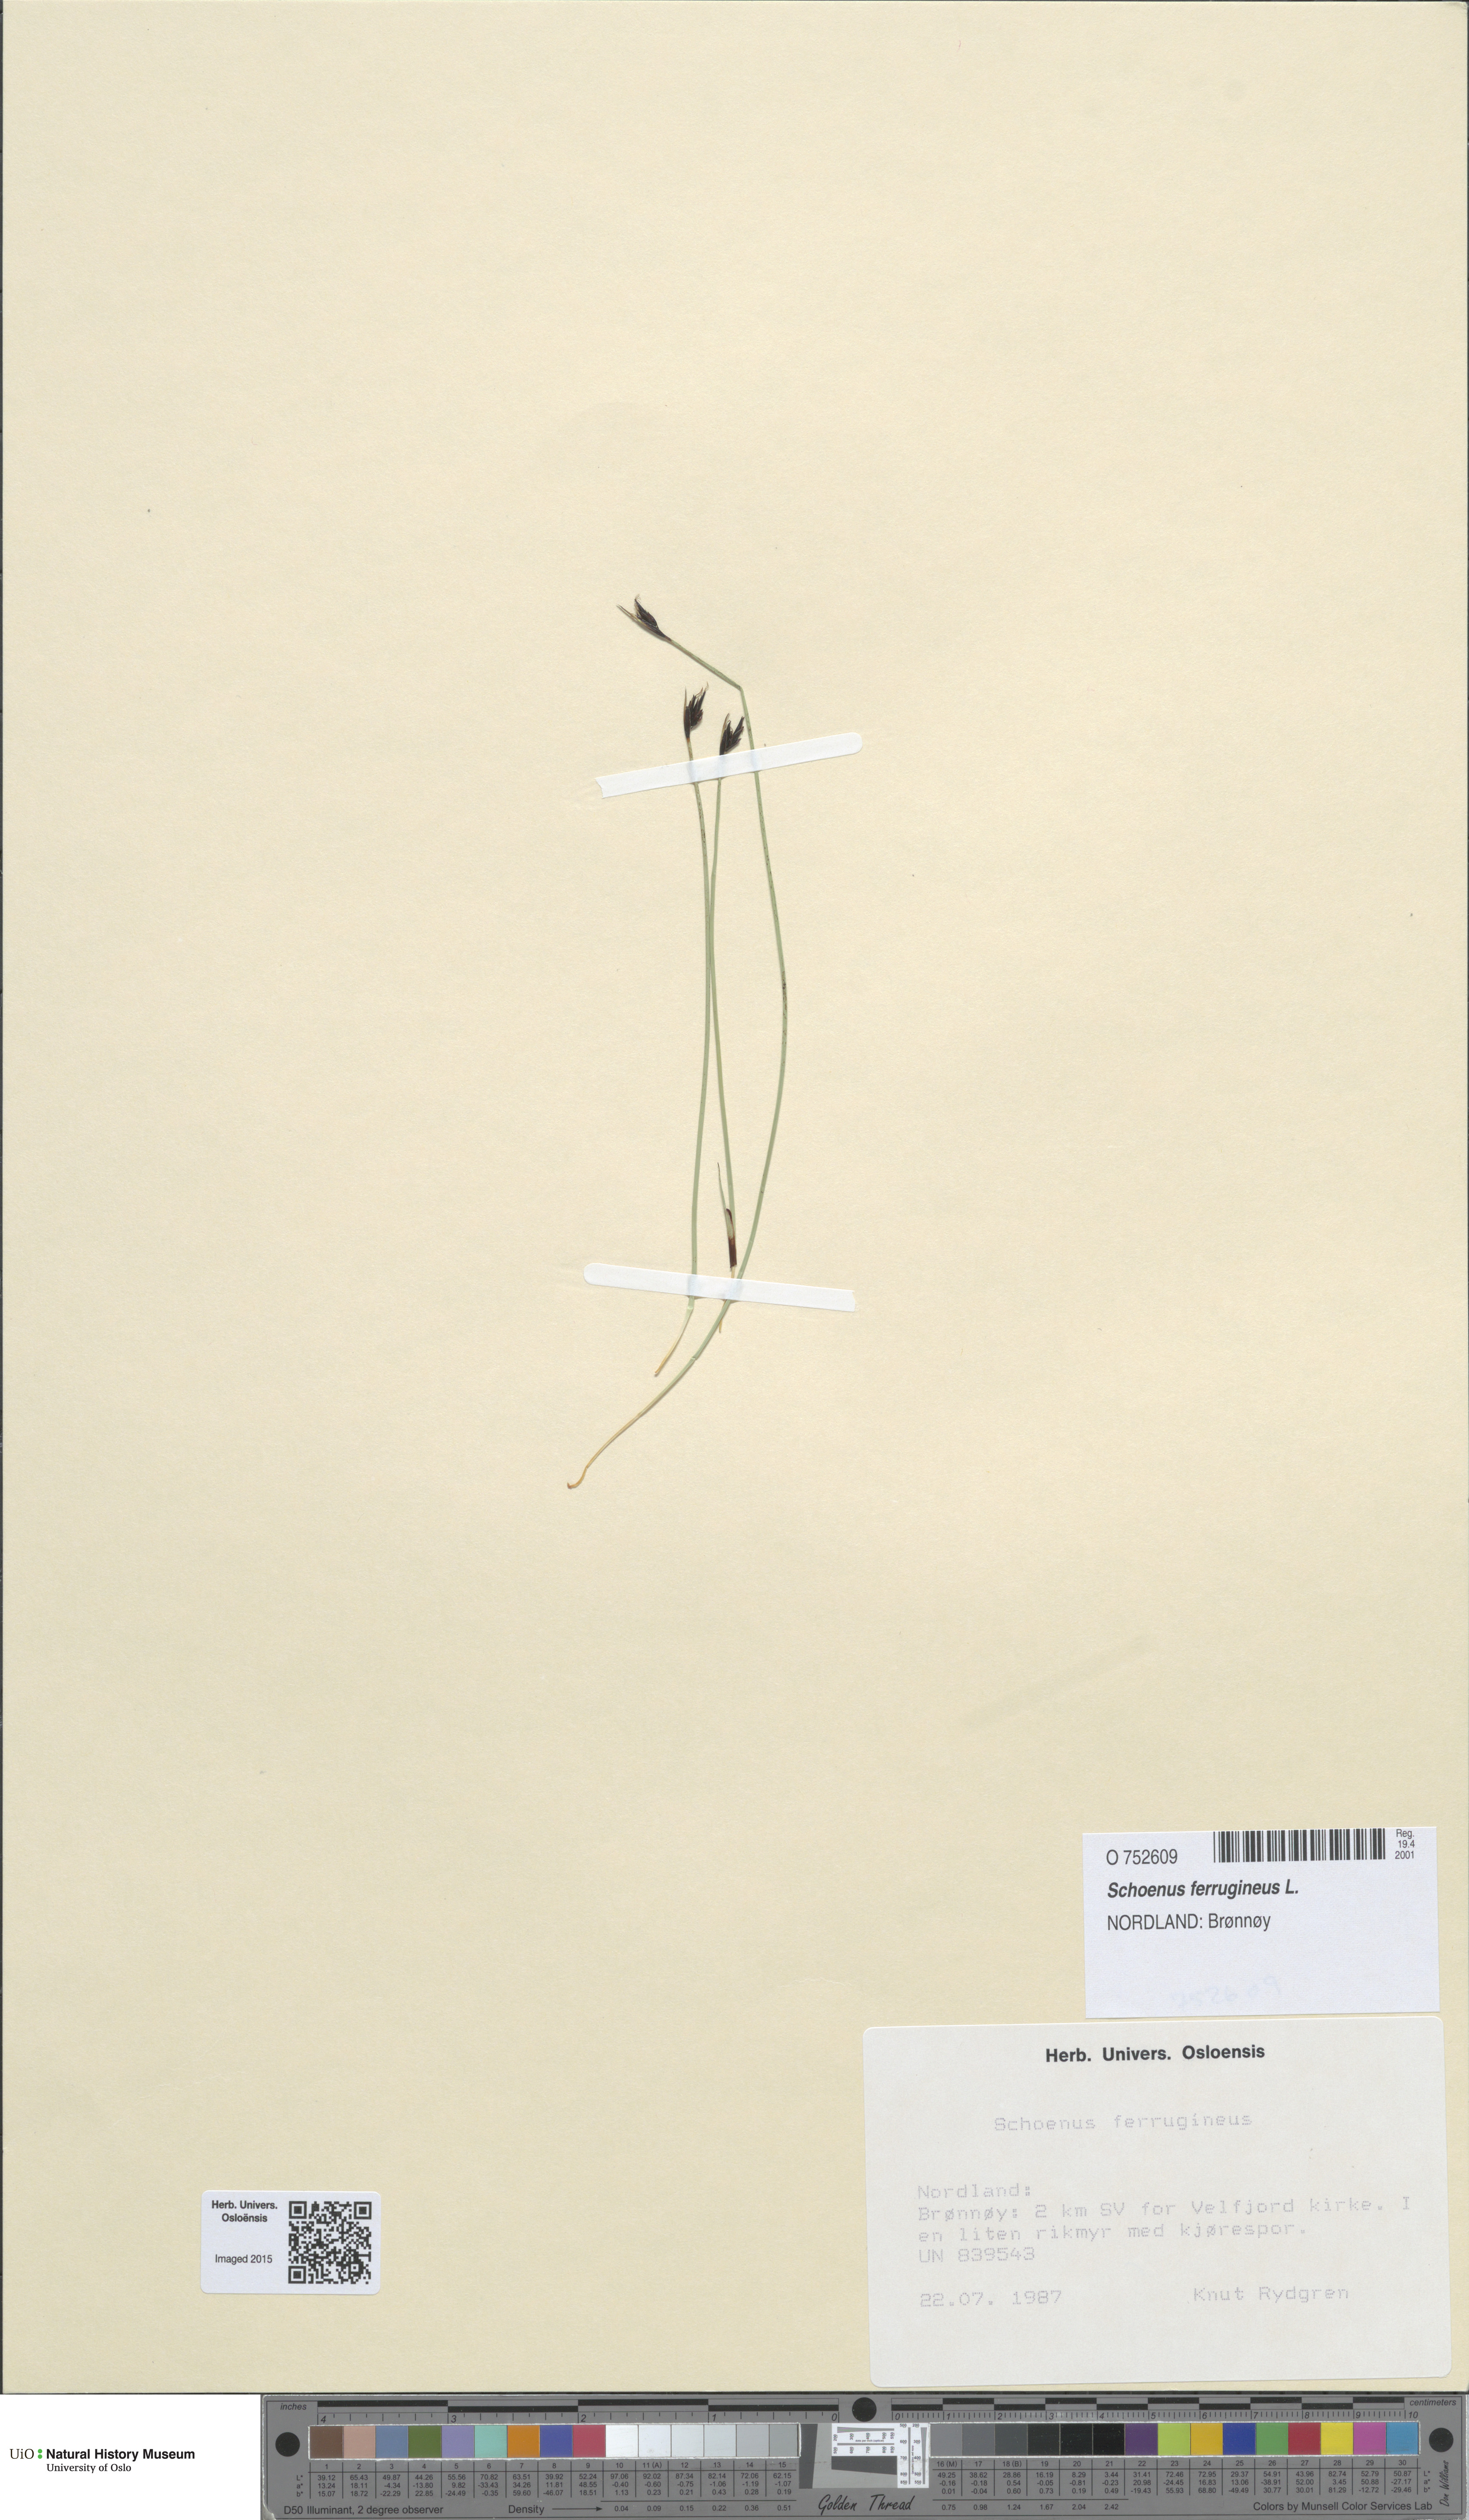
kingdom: Plantae
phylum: Tracheophyta
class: Liliopsida
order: Poales
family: Cyperaceae
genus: Schoenus
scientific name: Schoenus ferrugineus
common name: Brown bog-rush
